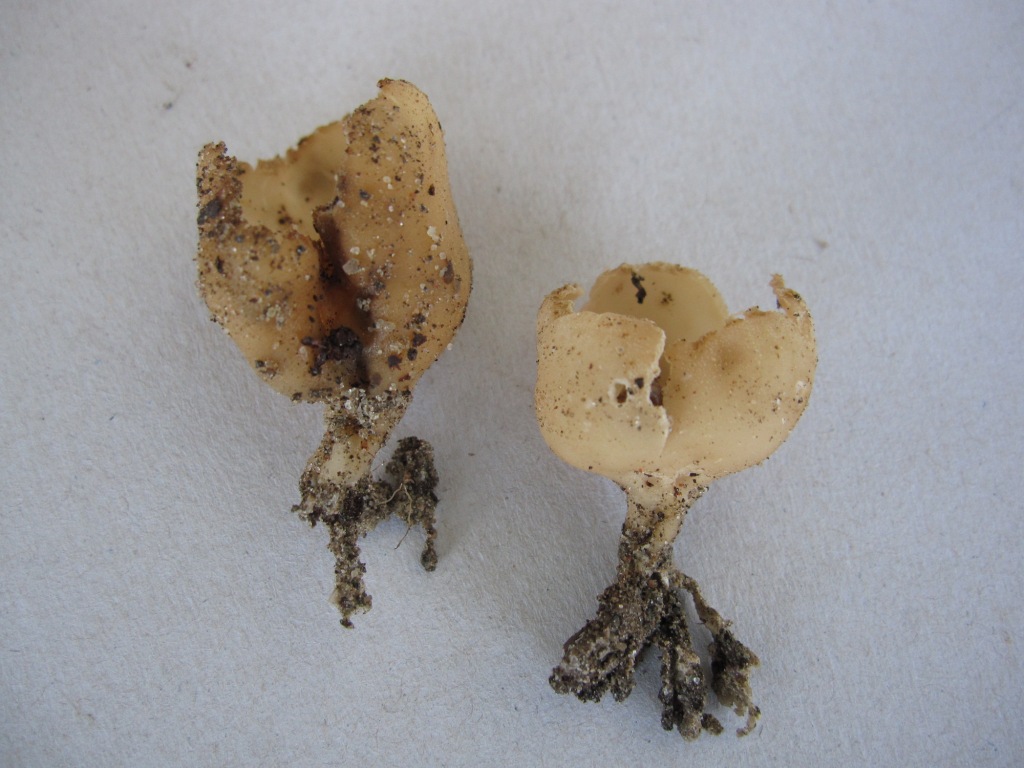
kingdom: Fungi
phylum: Ascomycota
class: Pezizomycetes
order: Pezizales
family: Pyronemataceae
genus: Tarzetta
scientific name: Tarzetta cupularis
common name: gulbrun pokalbæger
